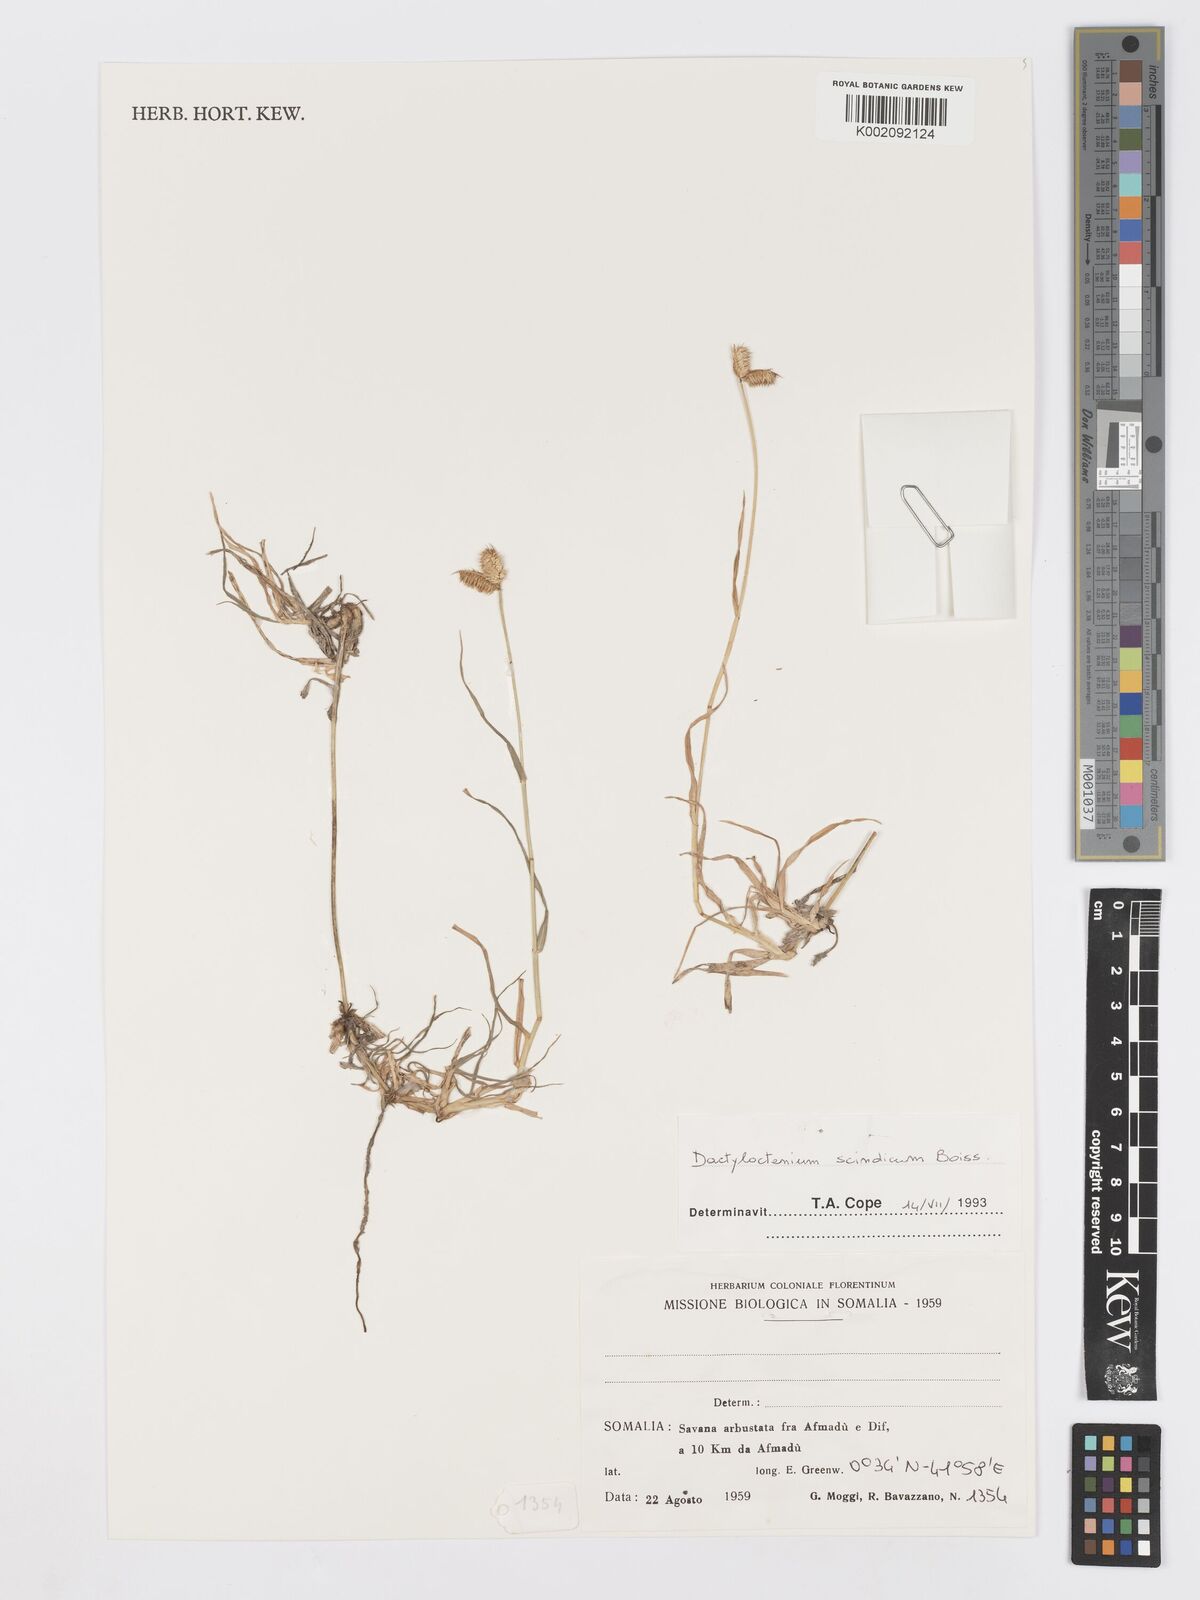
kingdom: Plantae
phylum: Tracheophyta
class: Liliopsida
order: Poales
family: Poaceae
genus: Dactyloctenium
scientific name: Dactyloctenium scindicum
